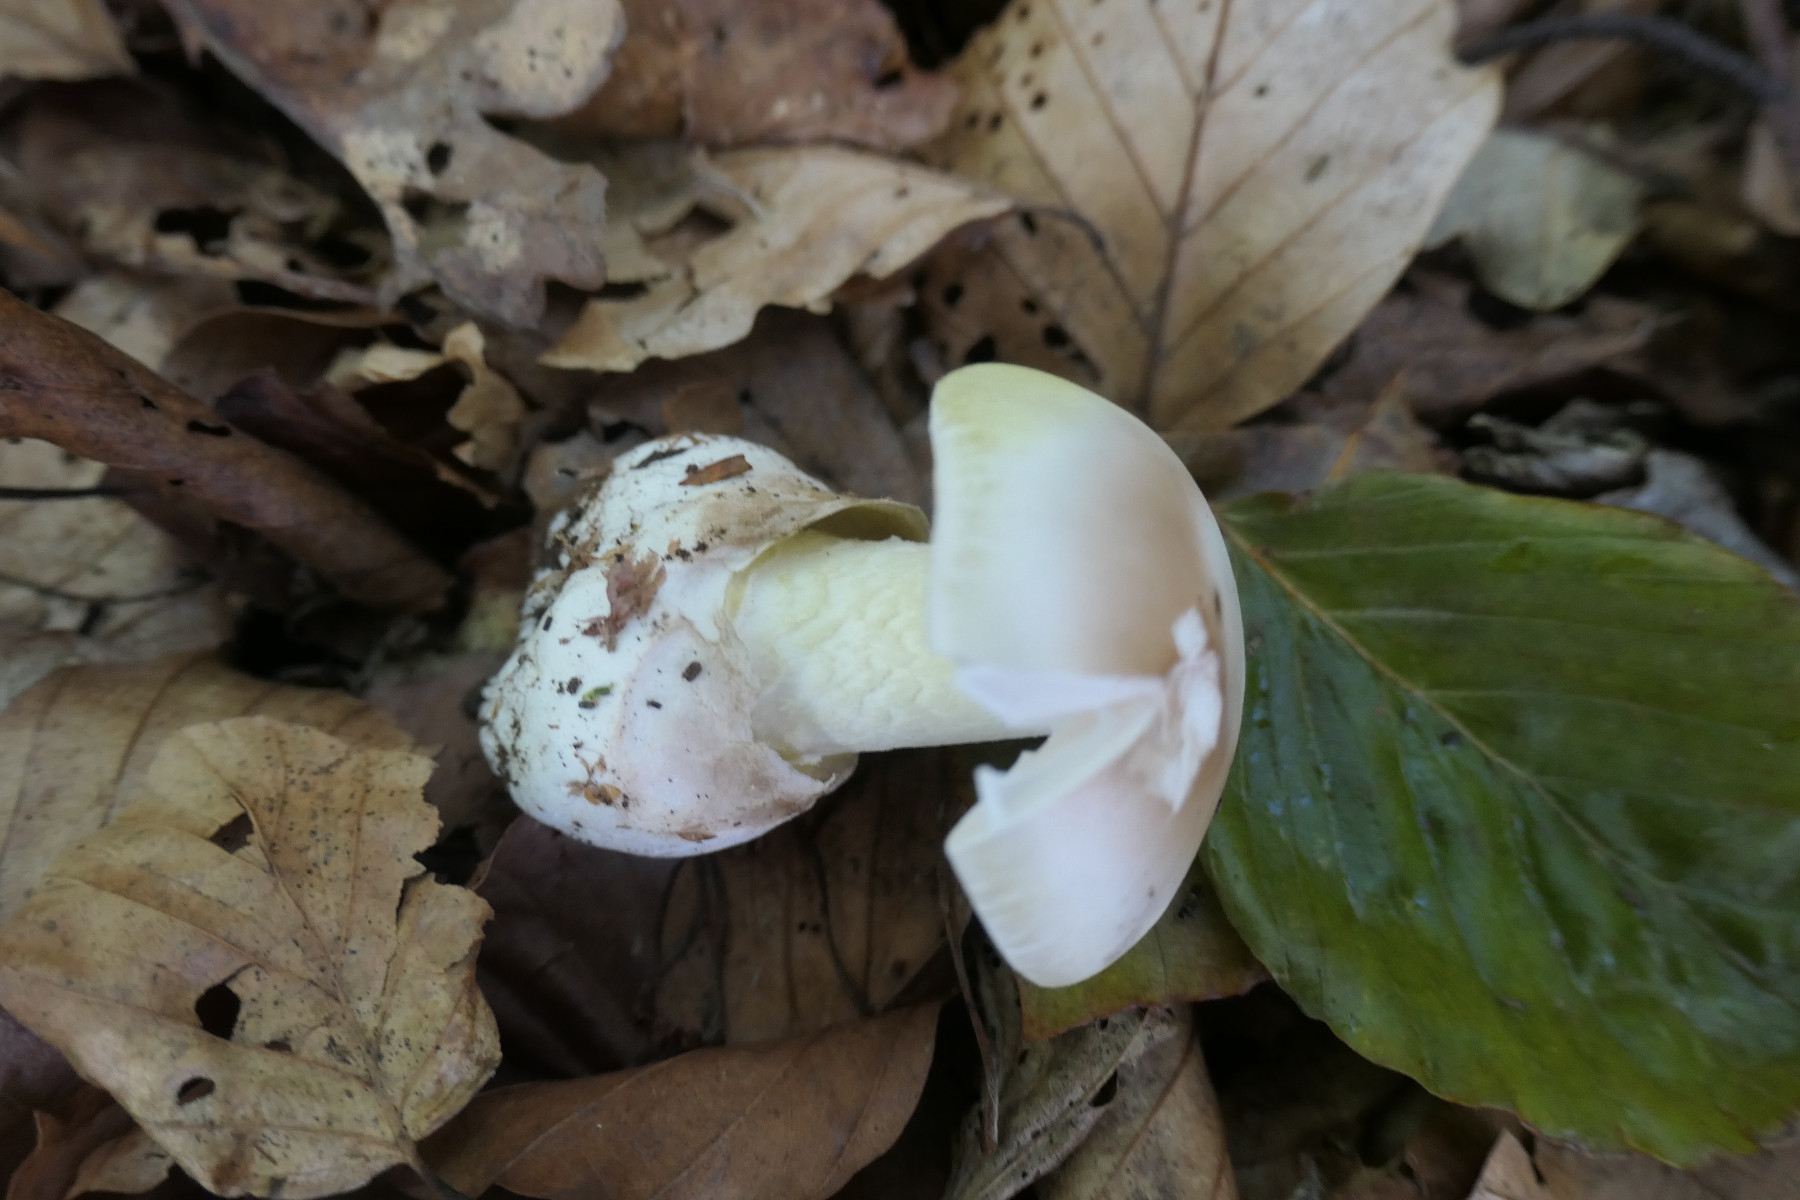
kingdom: Fungi
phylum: Basidiomycota
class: Agaricomycetes
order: Agaricales
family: Amanitaceae
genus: Amanita
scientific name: Amanita phalloides
